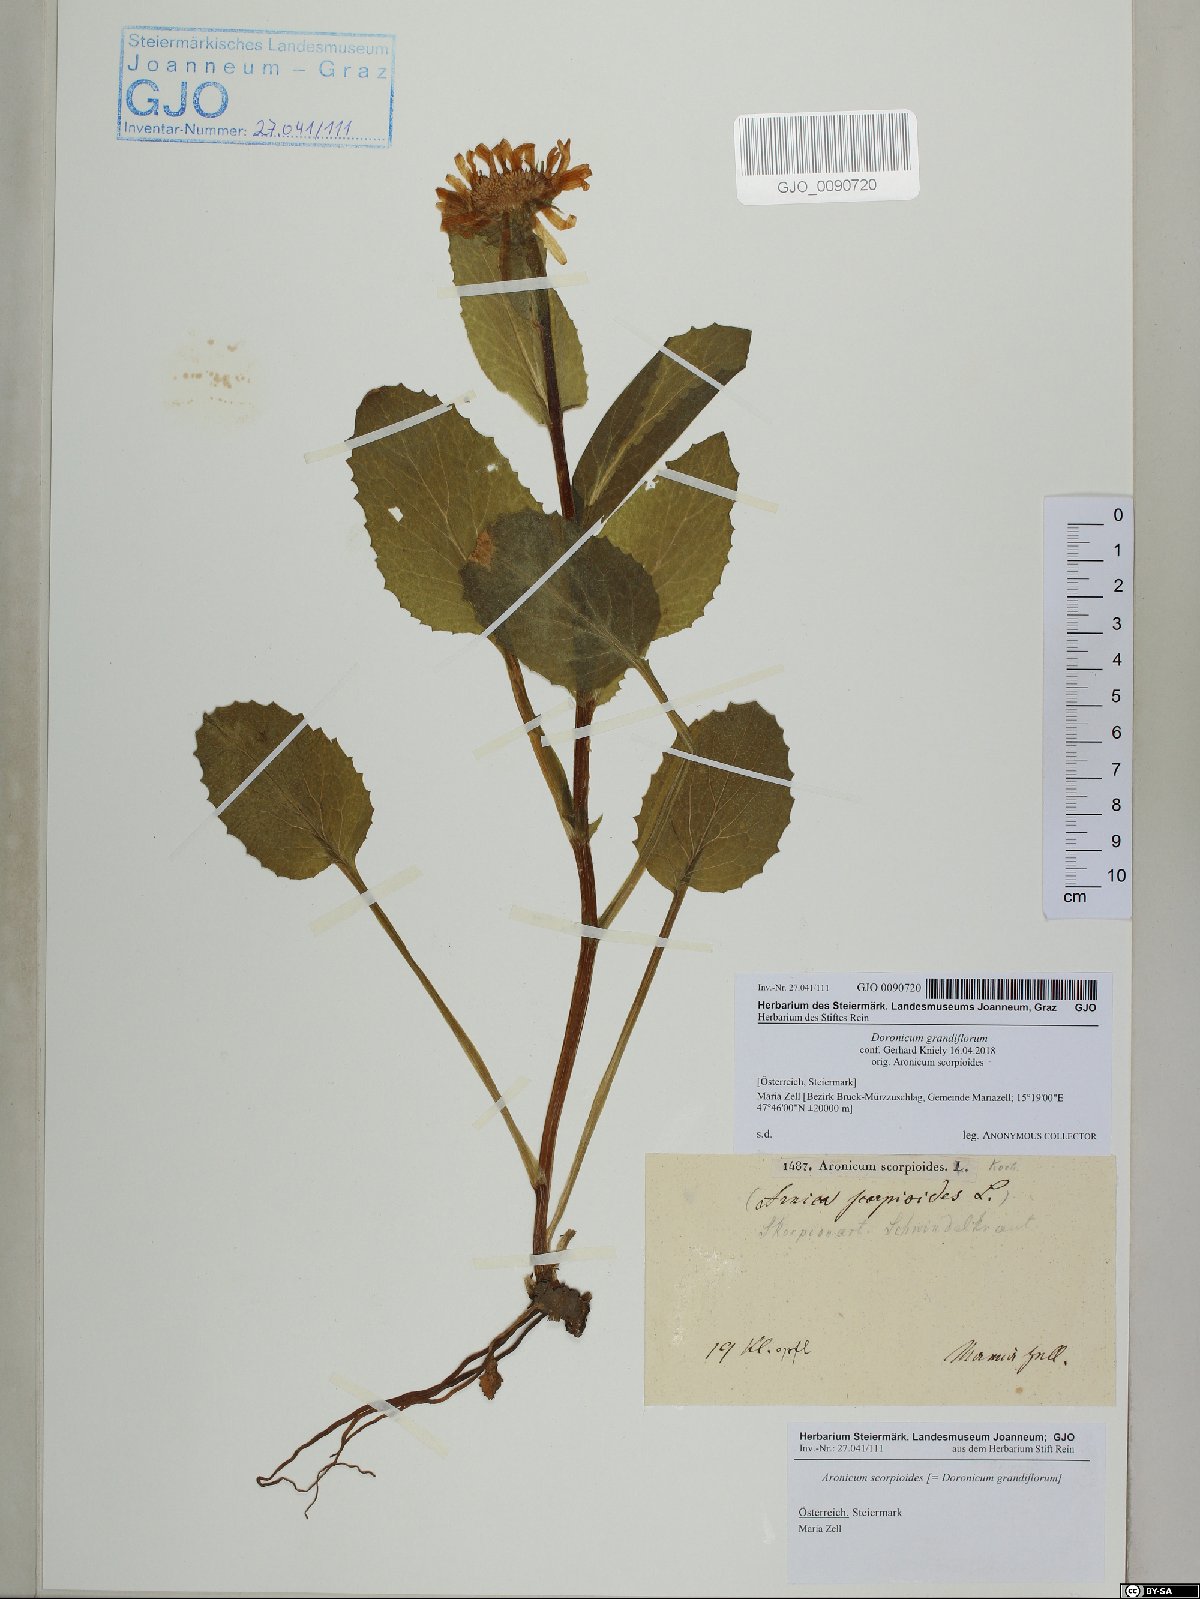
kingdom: Plantae
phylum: Tracheophyta
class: Magnoliopsida
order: Asterales
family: Asteraceae
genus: Doronicum
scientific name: Doronicum grandiflorum
